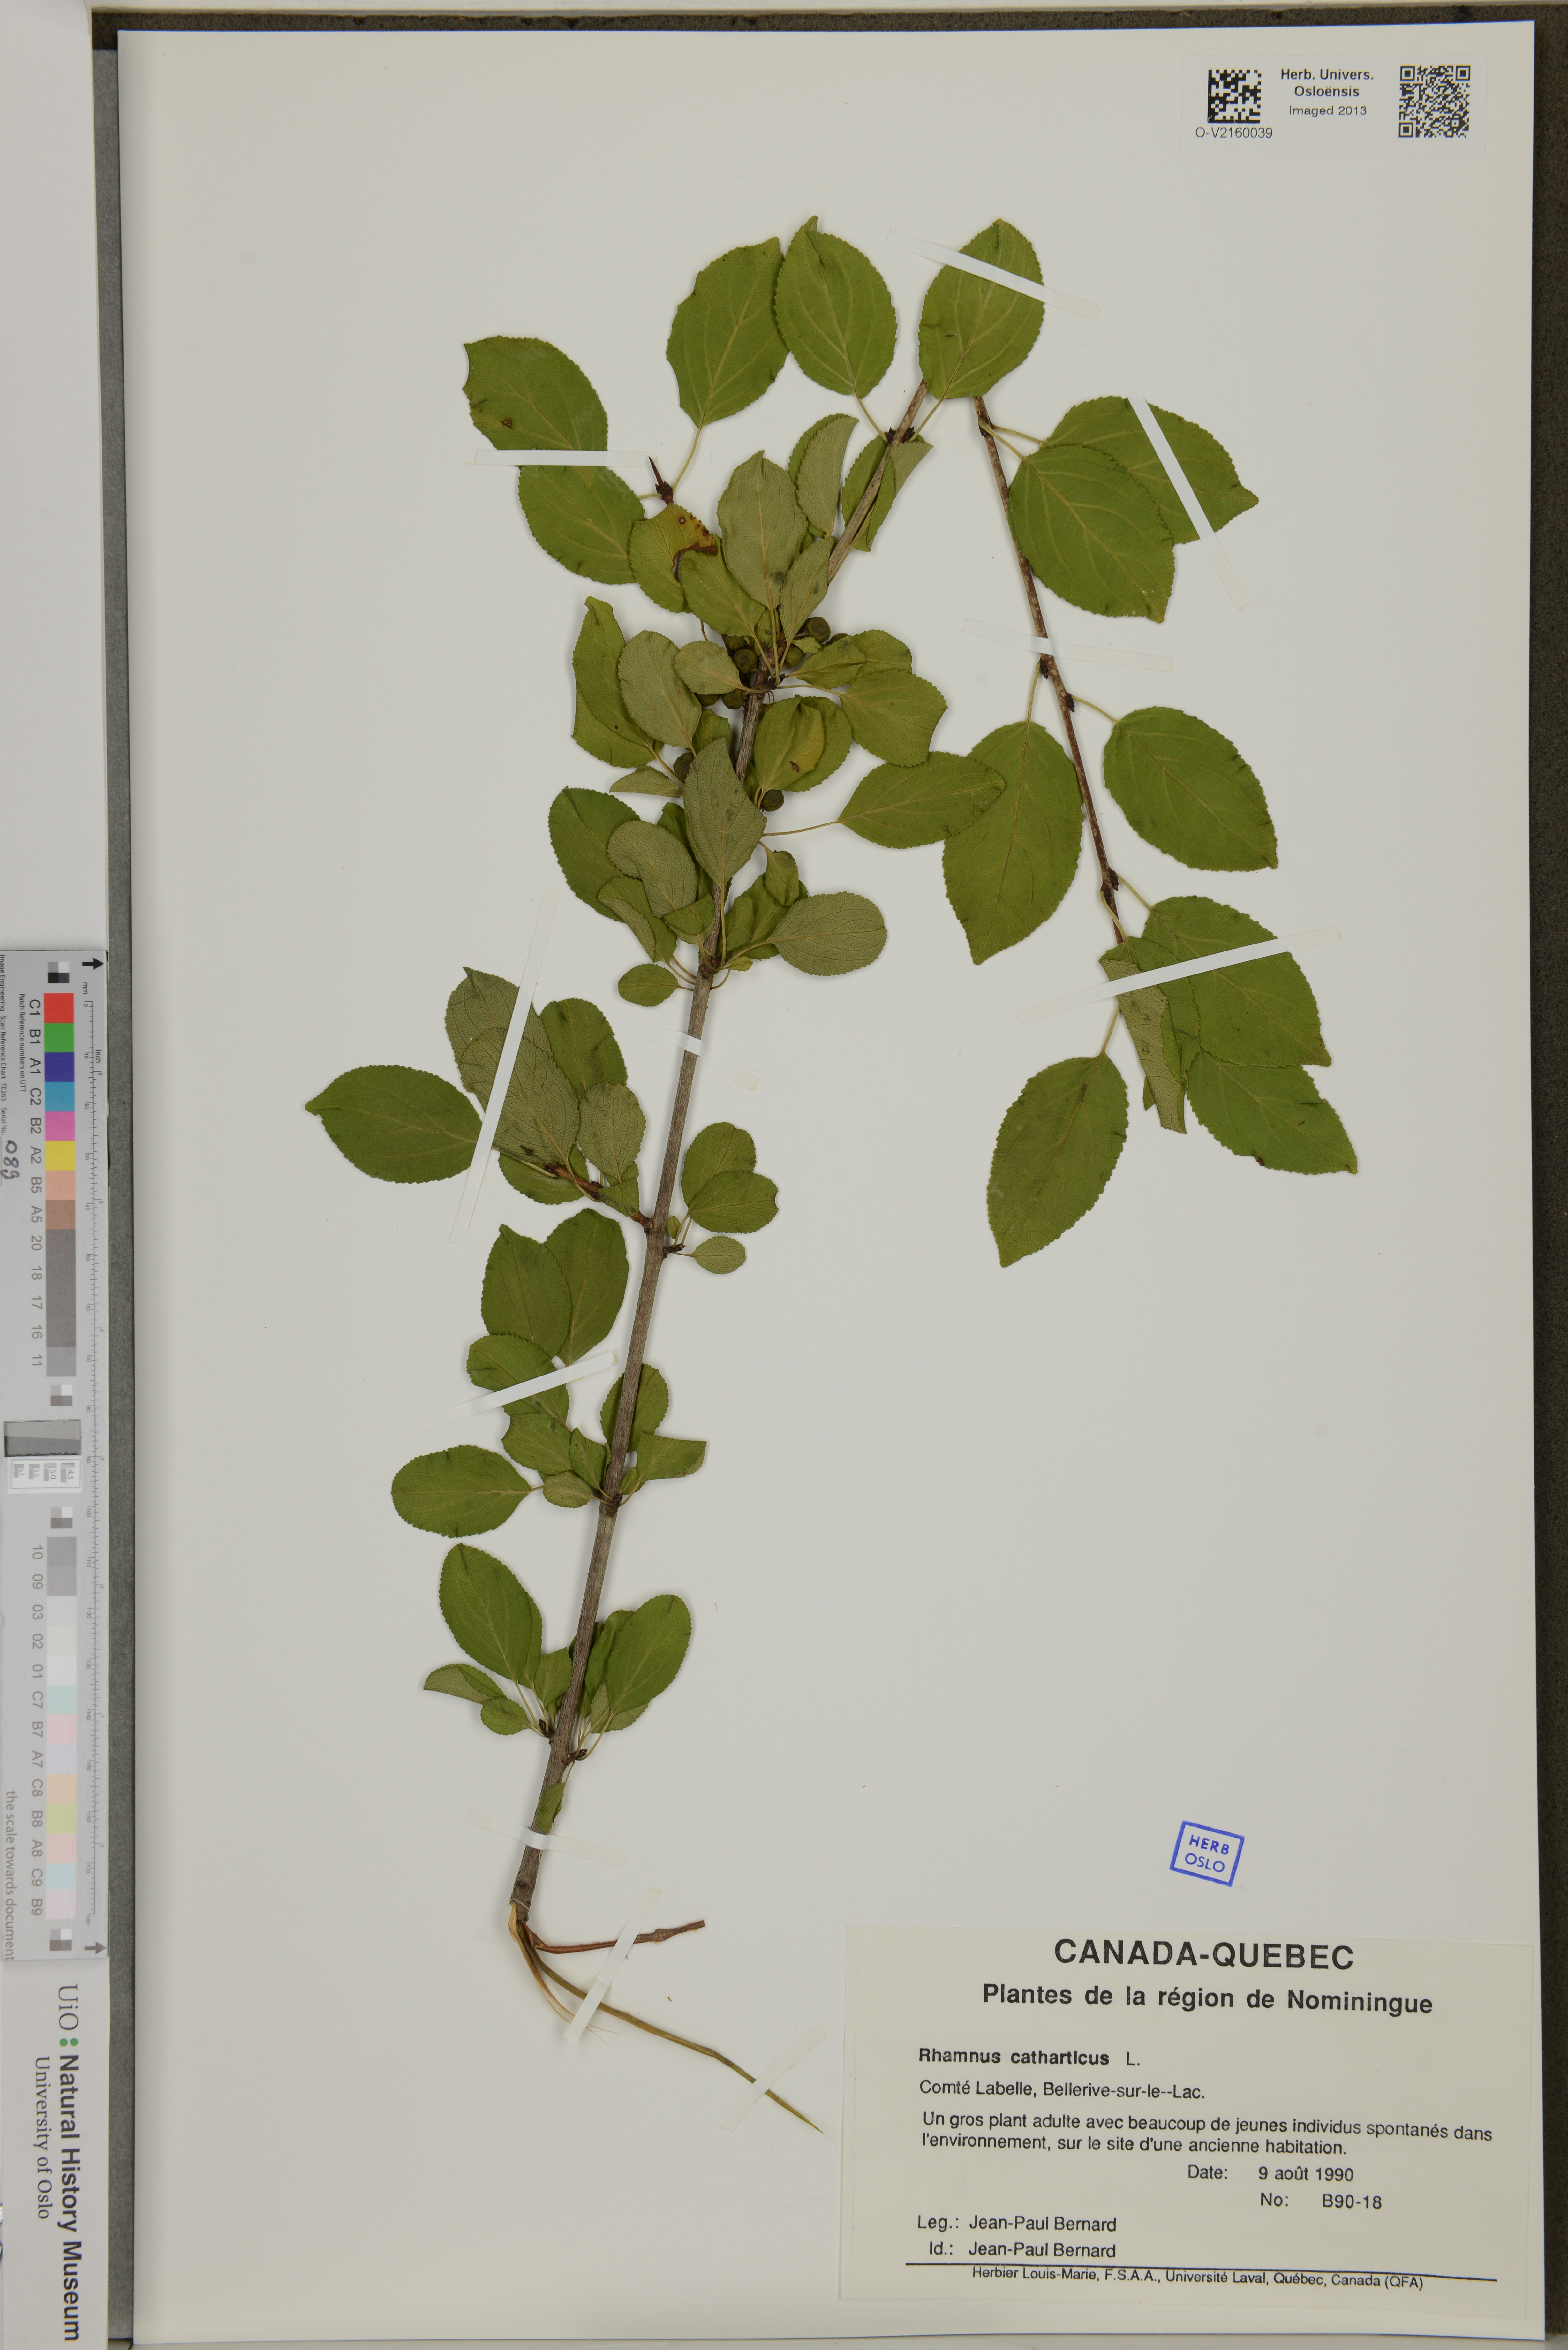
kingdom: Plantae
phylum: Tracheophyta
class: Magnoliopsida
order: Rosales
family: Rhamnaceae
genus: Rhamnus
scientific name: Rhamnus cathartica
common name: Common buckthorn
